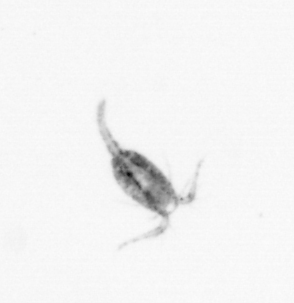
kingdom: Animalia
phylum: Arthropoda
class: Copepoda
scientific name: Copepoda
